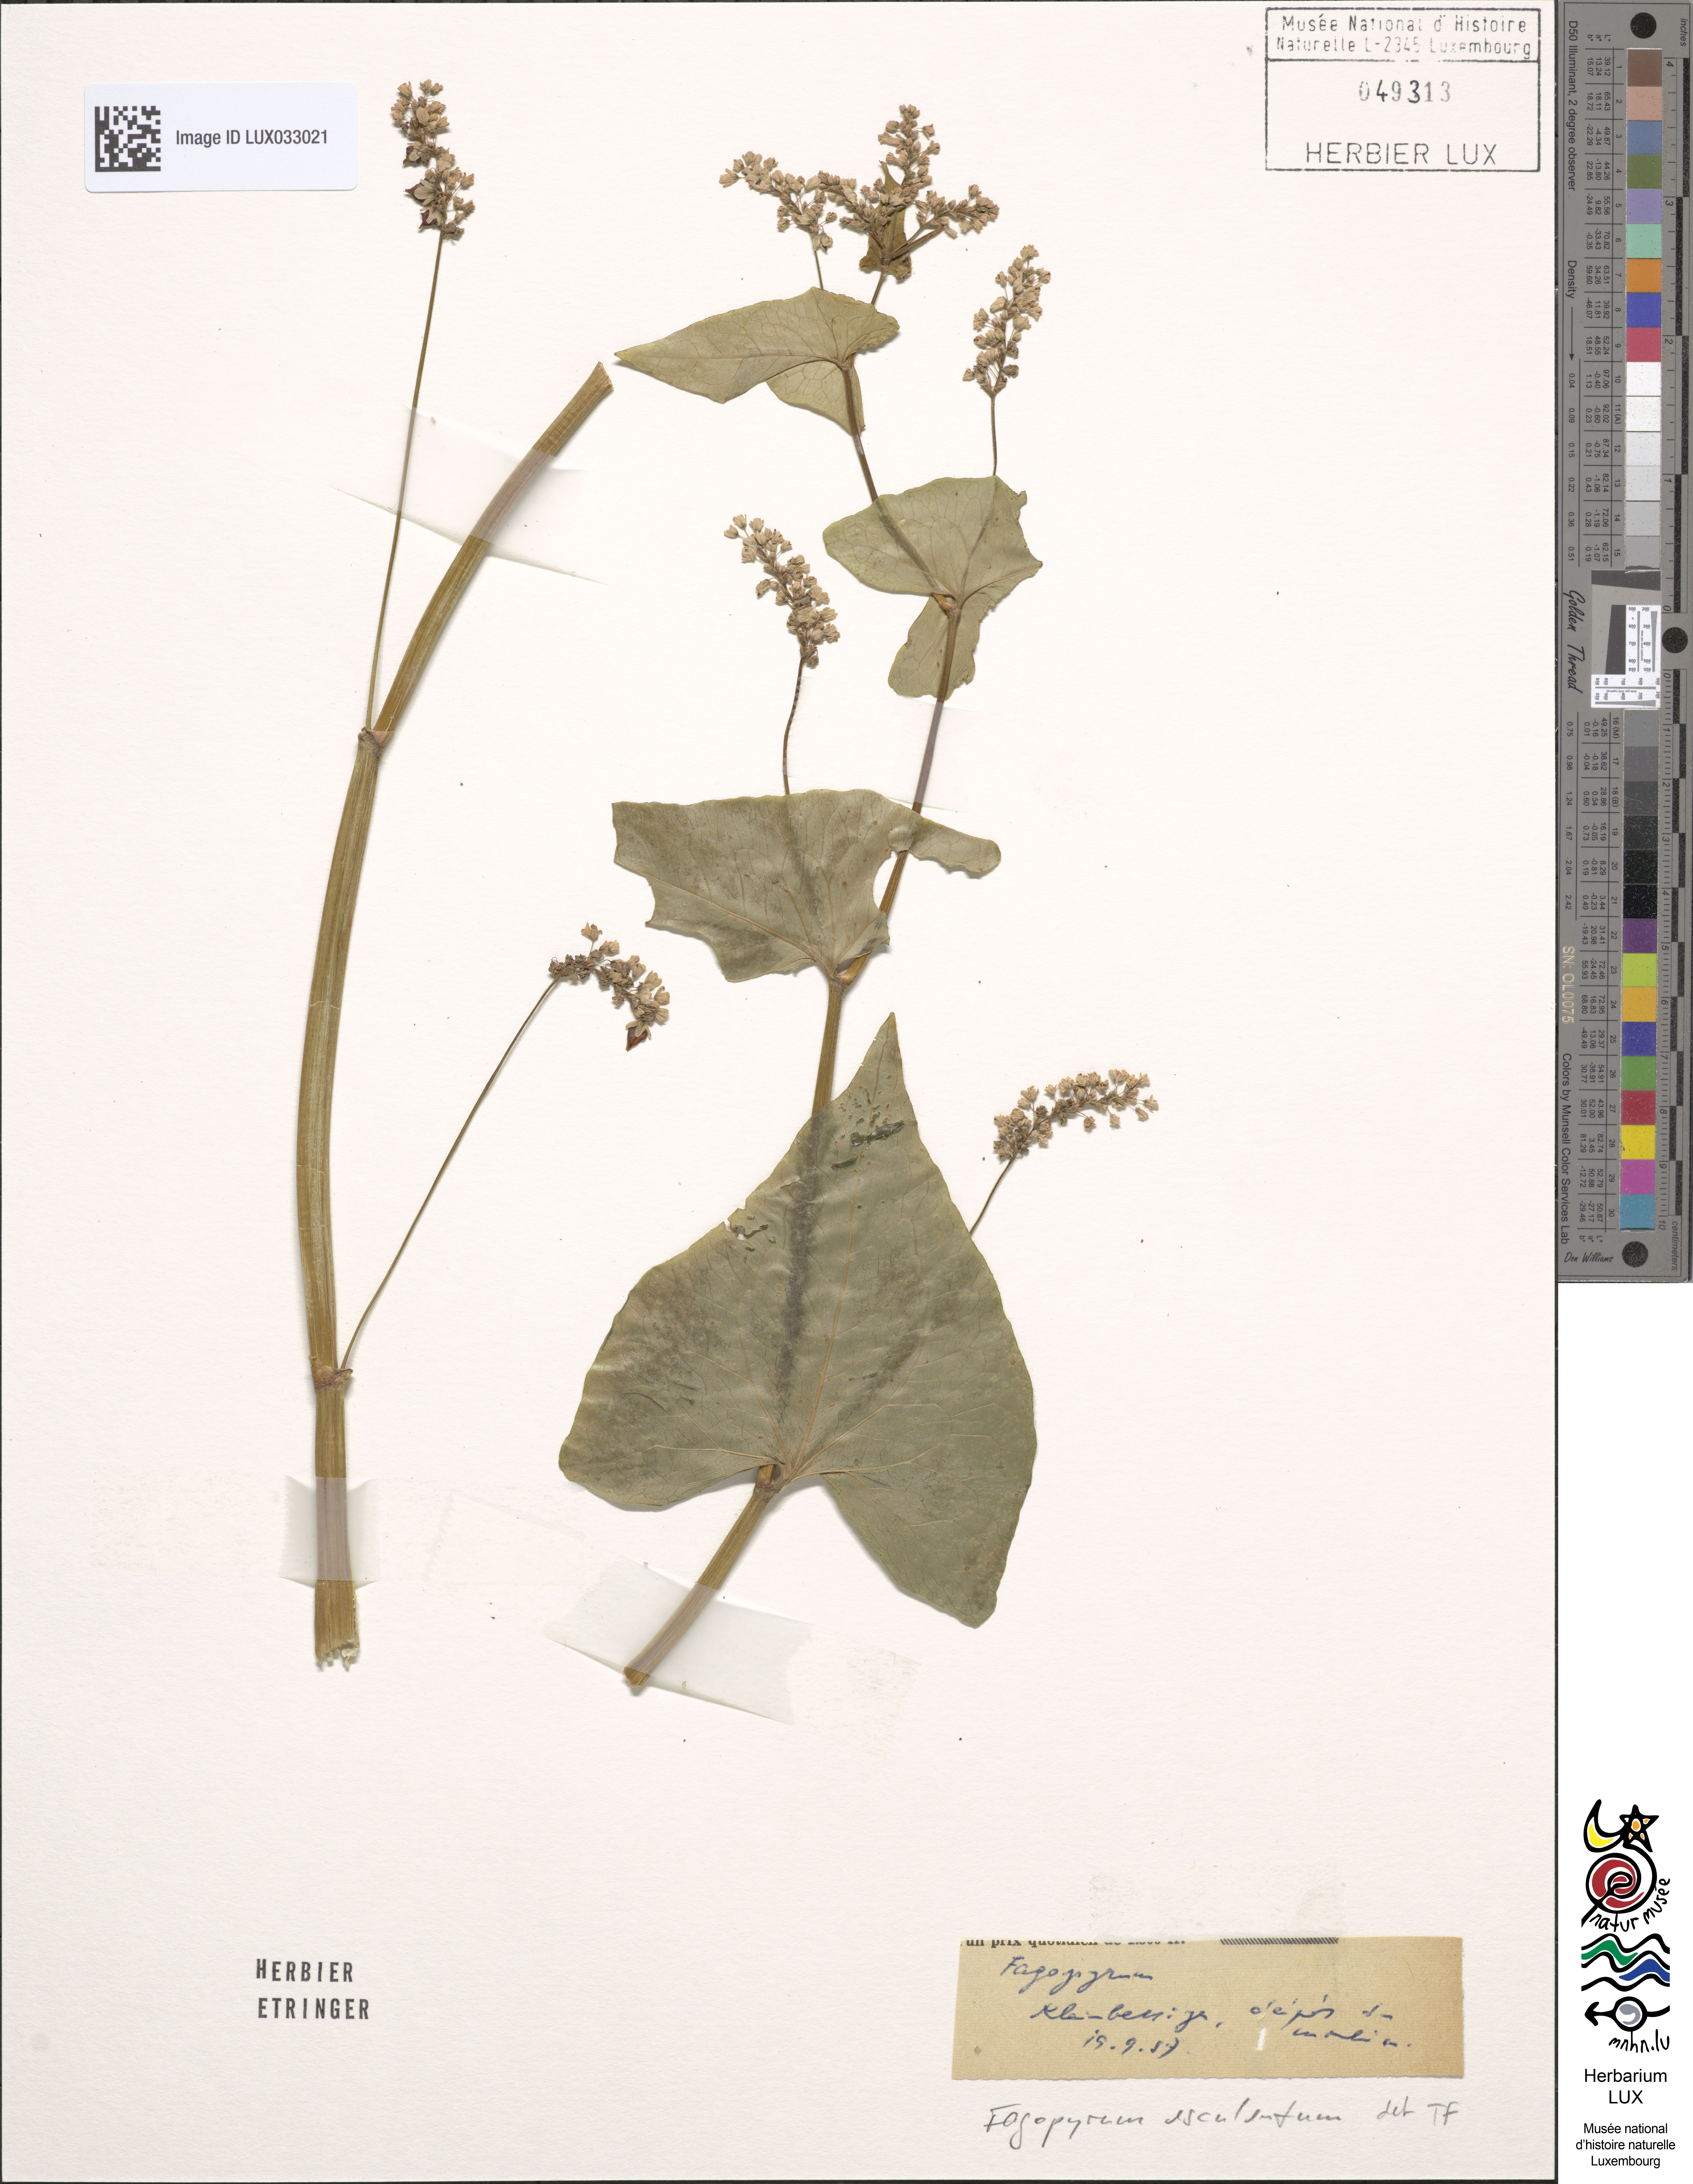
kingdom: Plantae
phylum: Tracheophyta
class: Magnoliopsida
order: Caryophyllales
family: Polygonaceae
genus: Fagopyrum
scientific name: Fagopyrum esculentum
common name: Buckwheat
